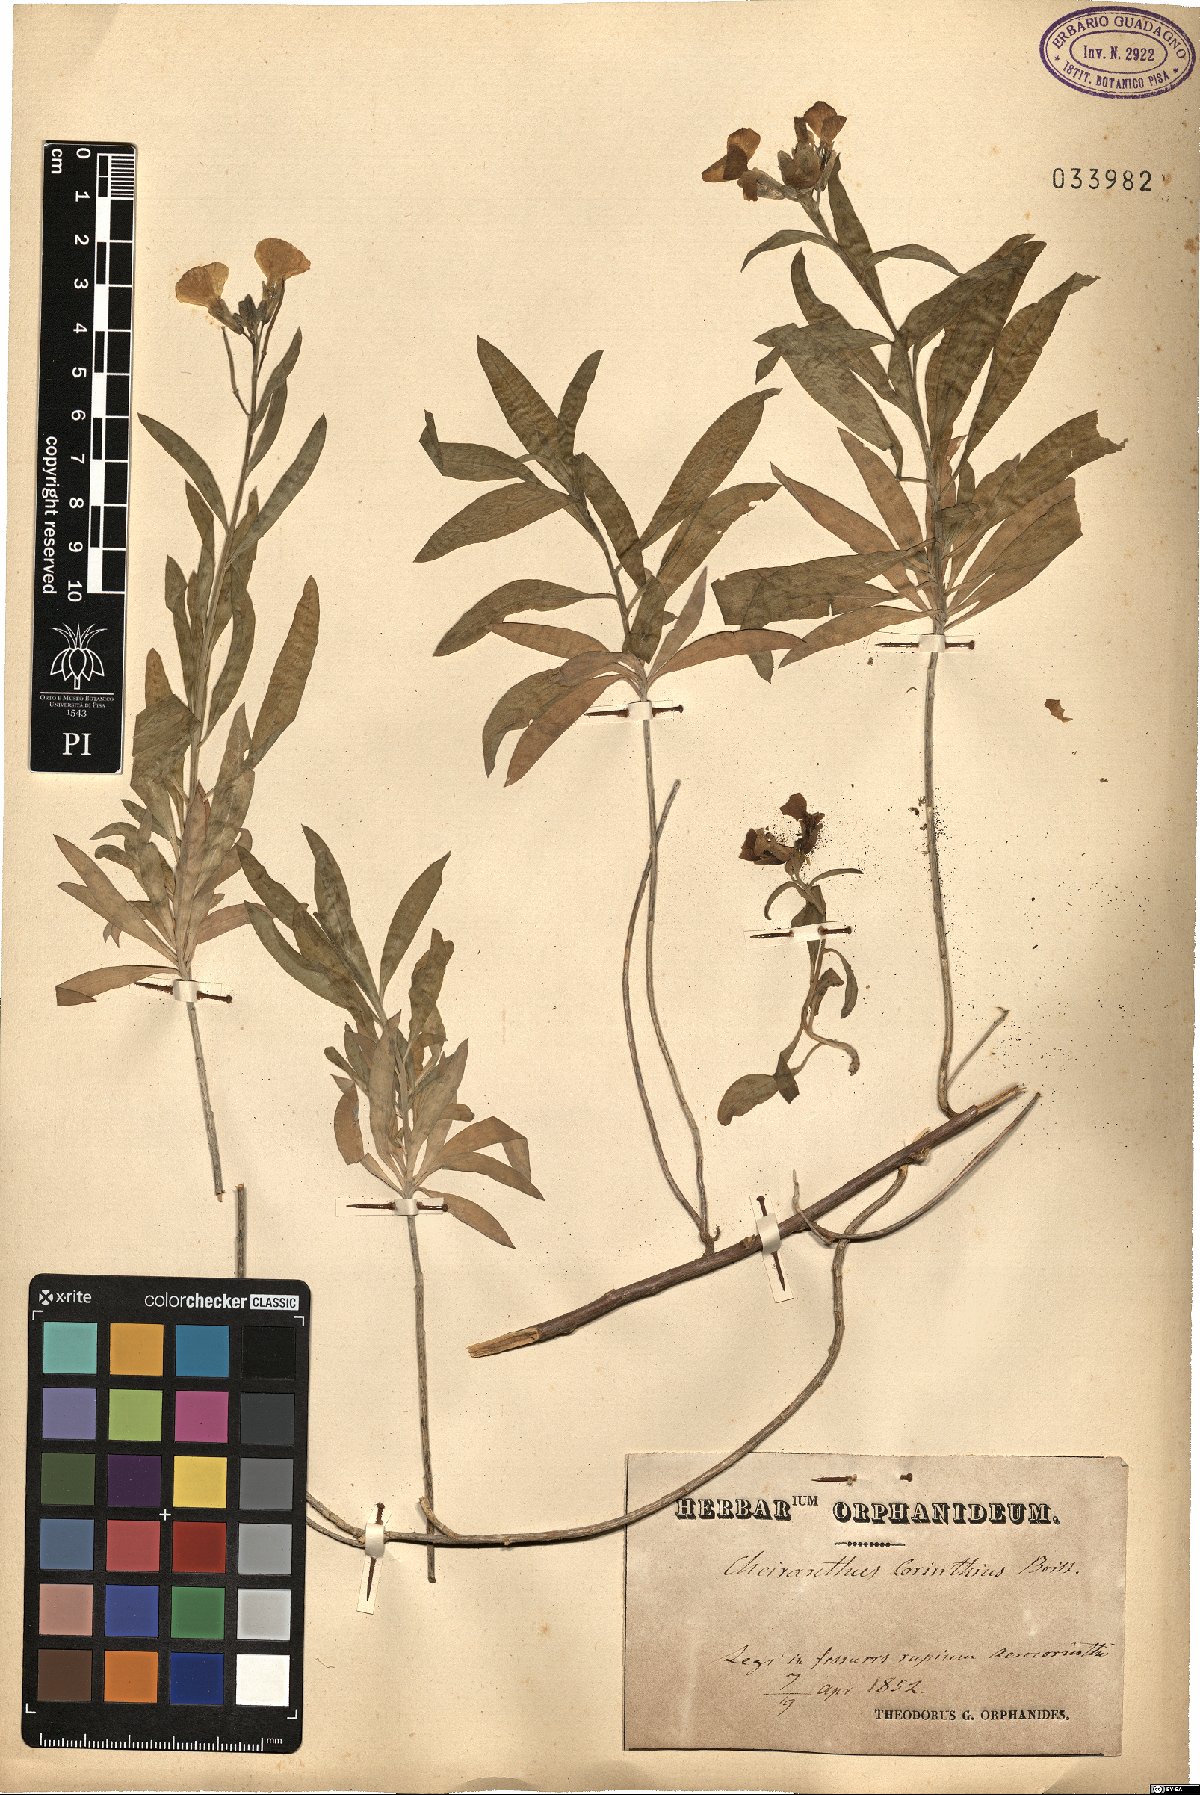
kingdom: Plantae
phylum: Tracheophyta
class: Magnoliopsida
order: Brassicales
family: Brassicaceae
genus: Erysimum
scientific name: Erysimum corinthium
